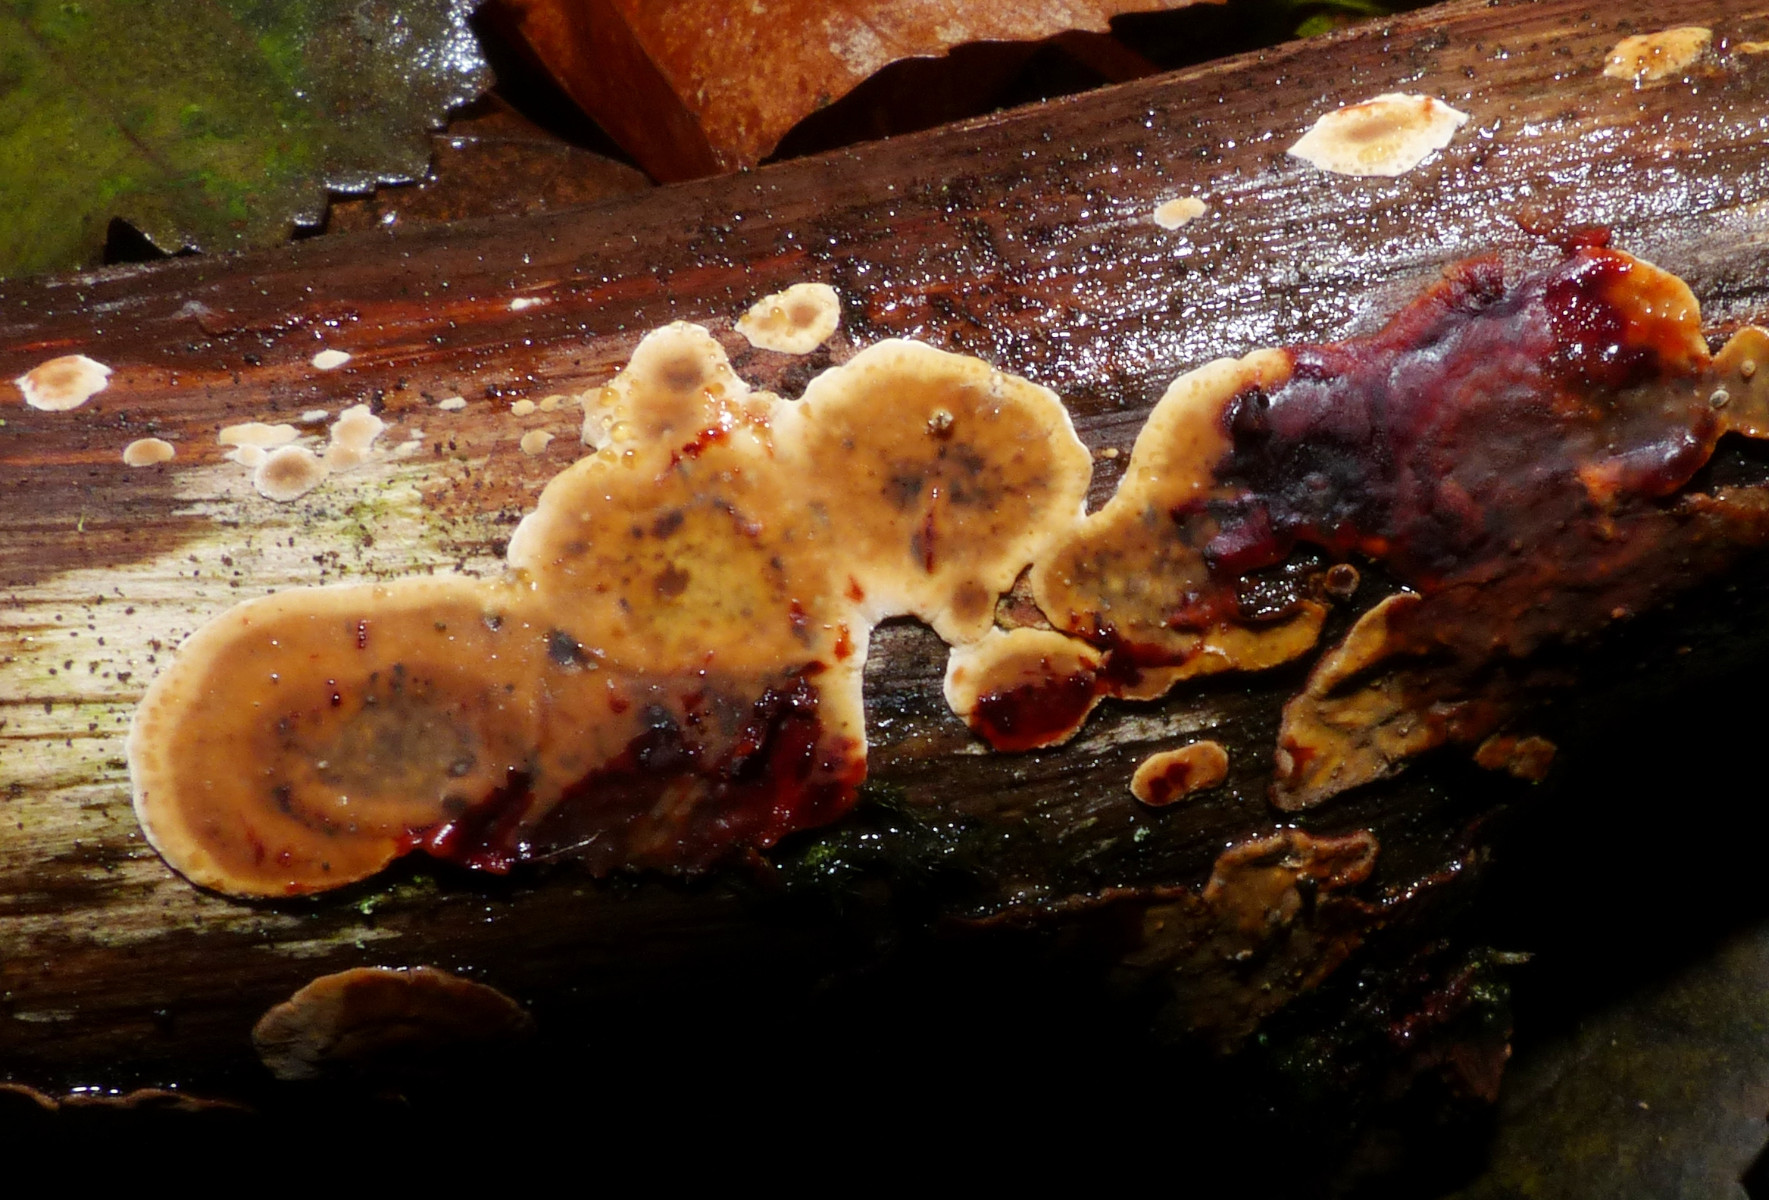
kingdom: Fungi
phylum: Basidiomycota
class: Agaricomycetes
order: Russulales
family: Stereaceae
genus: Stereum
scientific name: Stereum rugosum
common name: rynket lædersvamp
